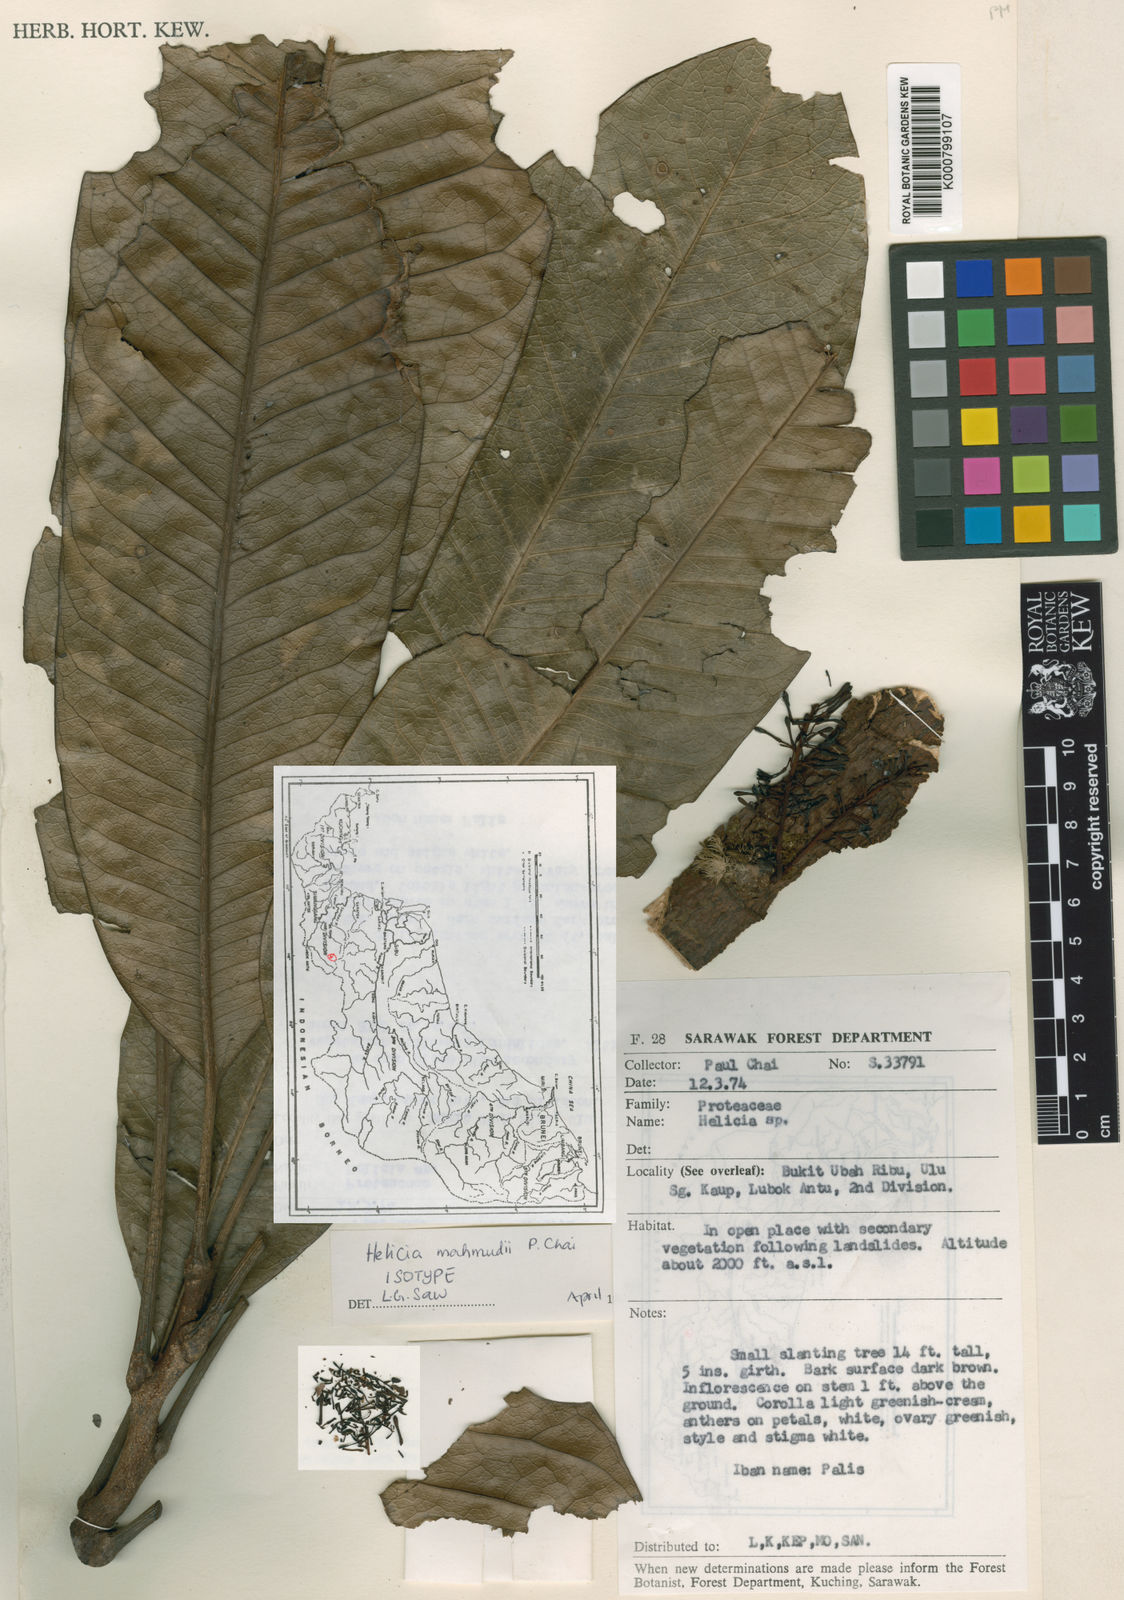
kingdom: Plantae
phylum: Tracheophyta
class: Magnoliopsida
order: Proteales
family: Proteaceae
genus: Heliciopsis
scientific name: Heliciopsis mahmudii
